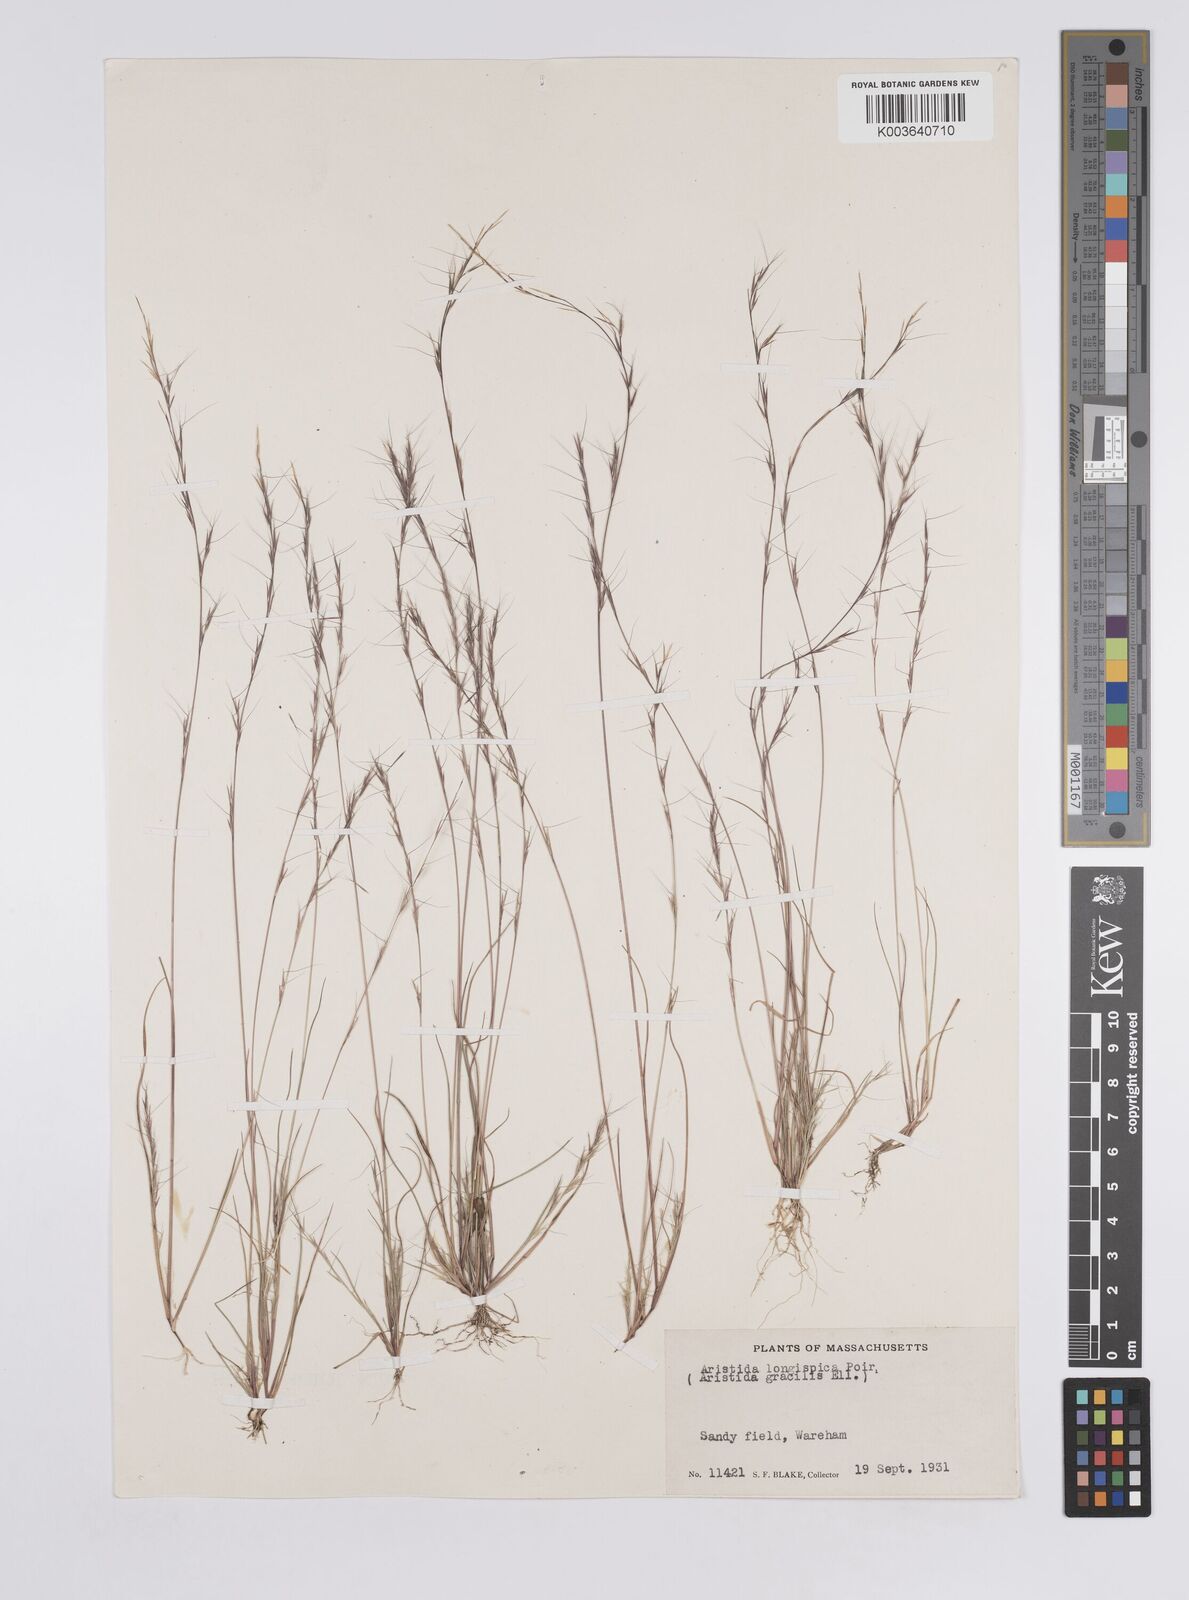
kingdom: Plantae
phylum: Tracheophyta
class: Liliopsida
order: Poales
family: Poaceae
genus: Aristida
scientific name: Aristida longespica
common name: Long-spiked triple-awned grass
